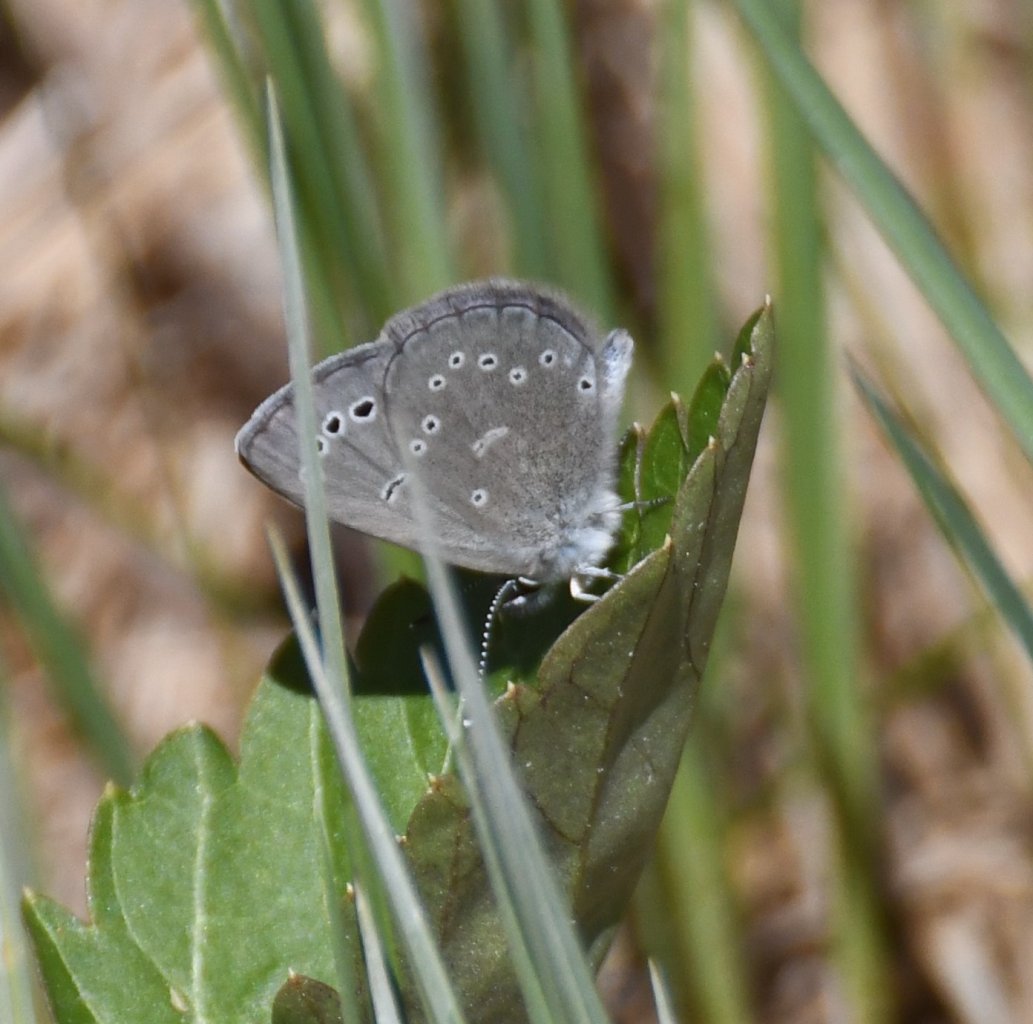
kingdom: Animalia
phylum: Arthropoda
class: Insecta
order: Lepidoptera
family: Lycaenidae
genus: Glaucopsyche
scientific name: Glaucopsyche lygdamus
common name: Silvery Blue
